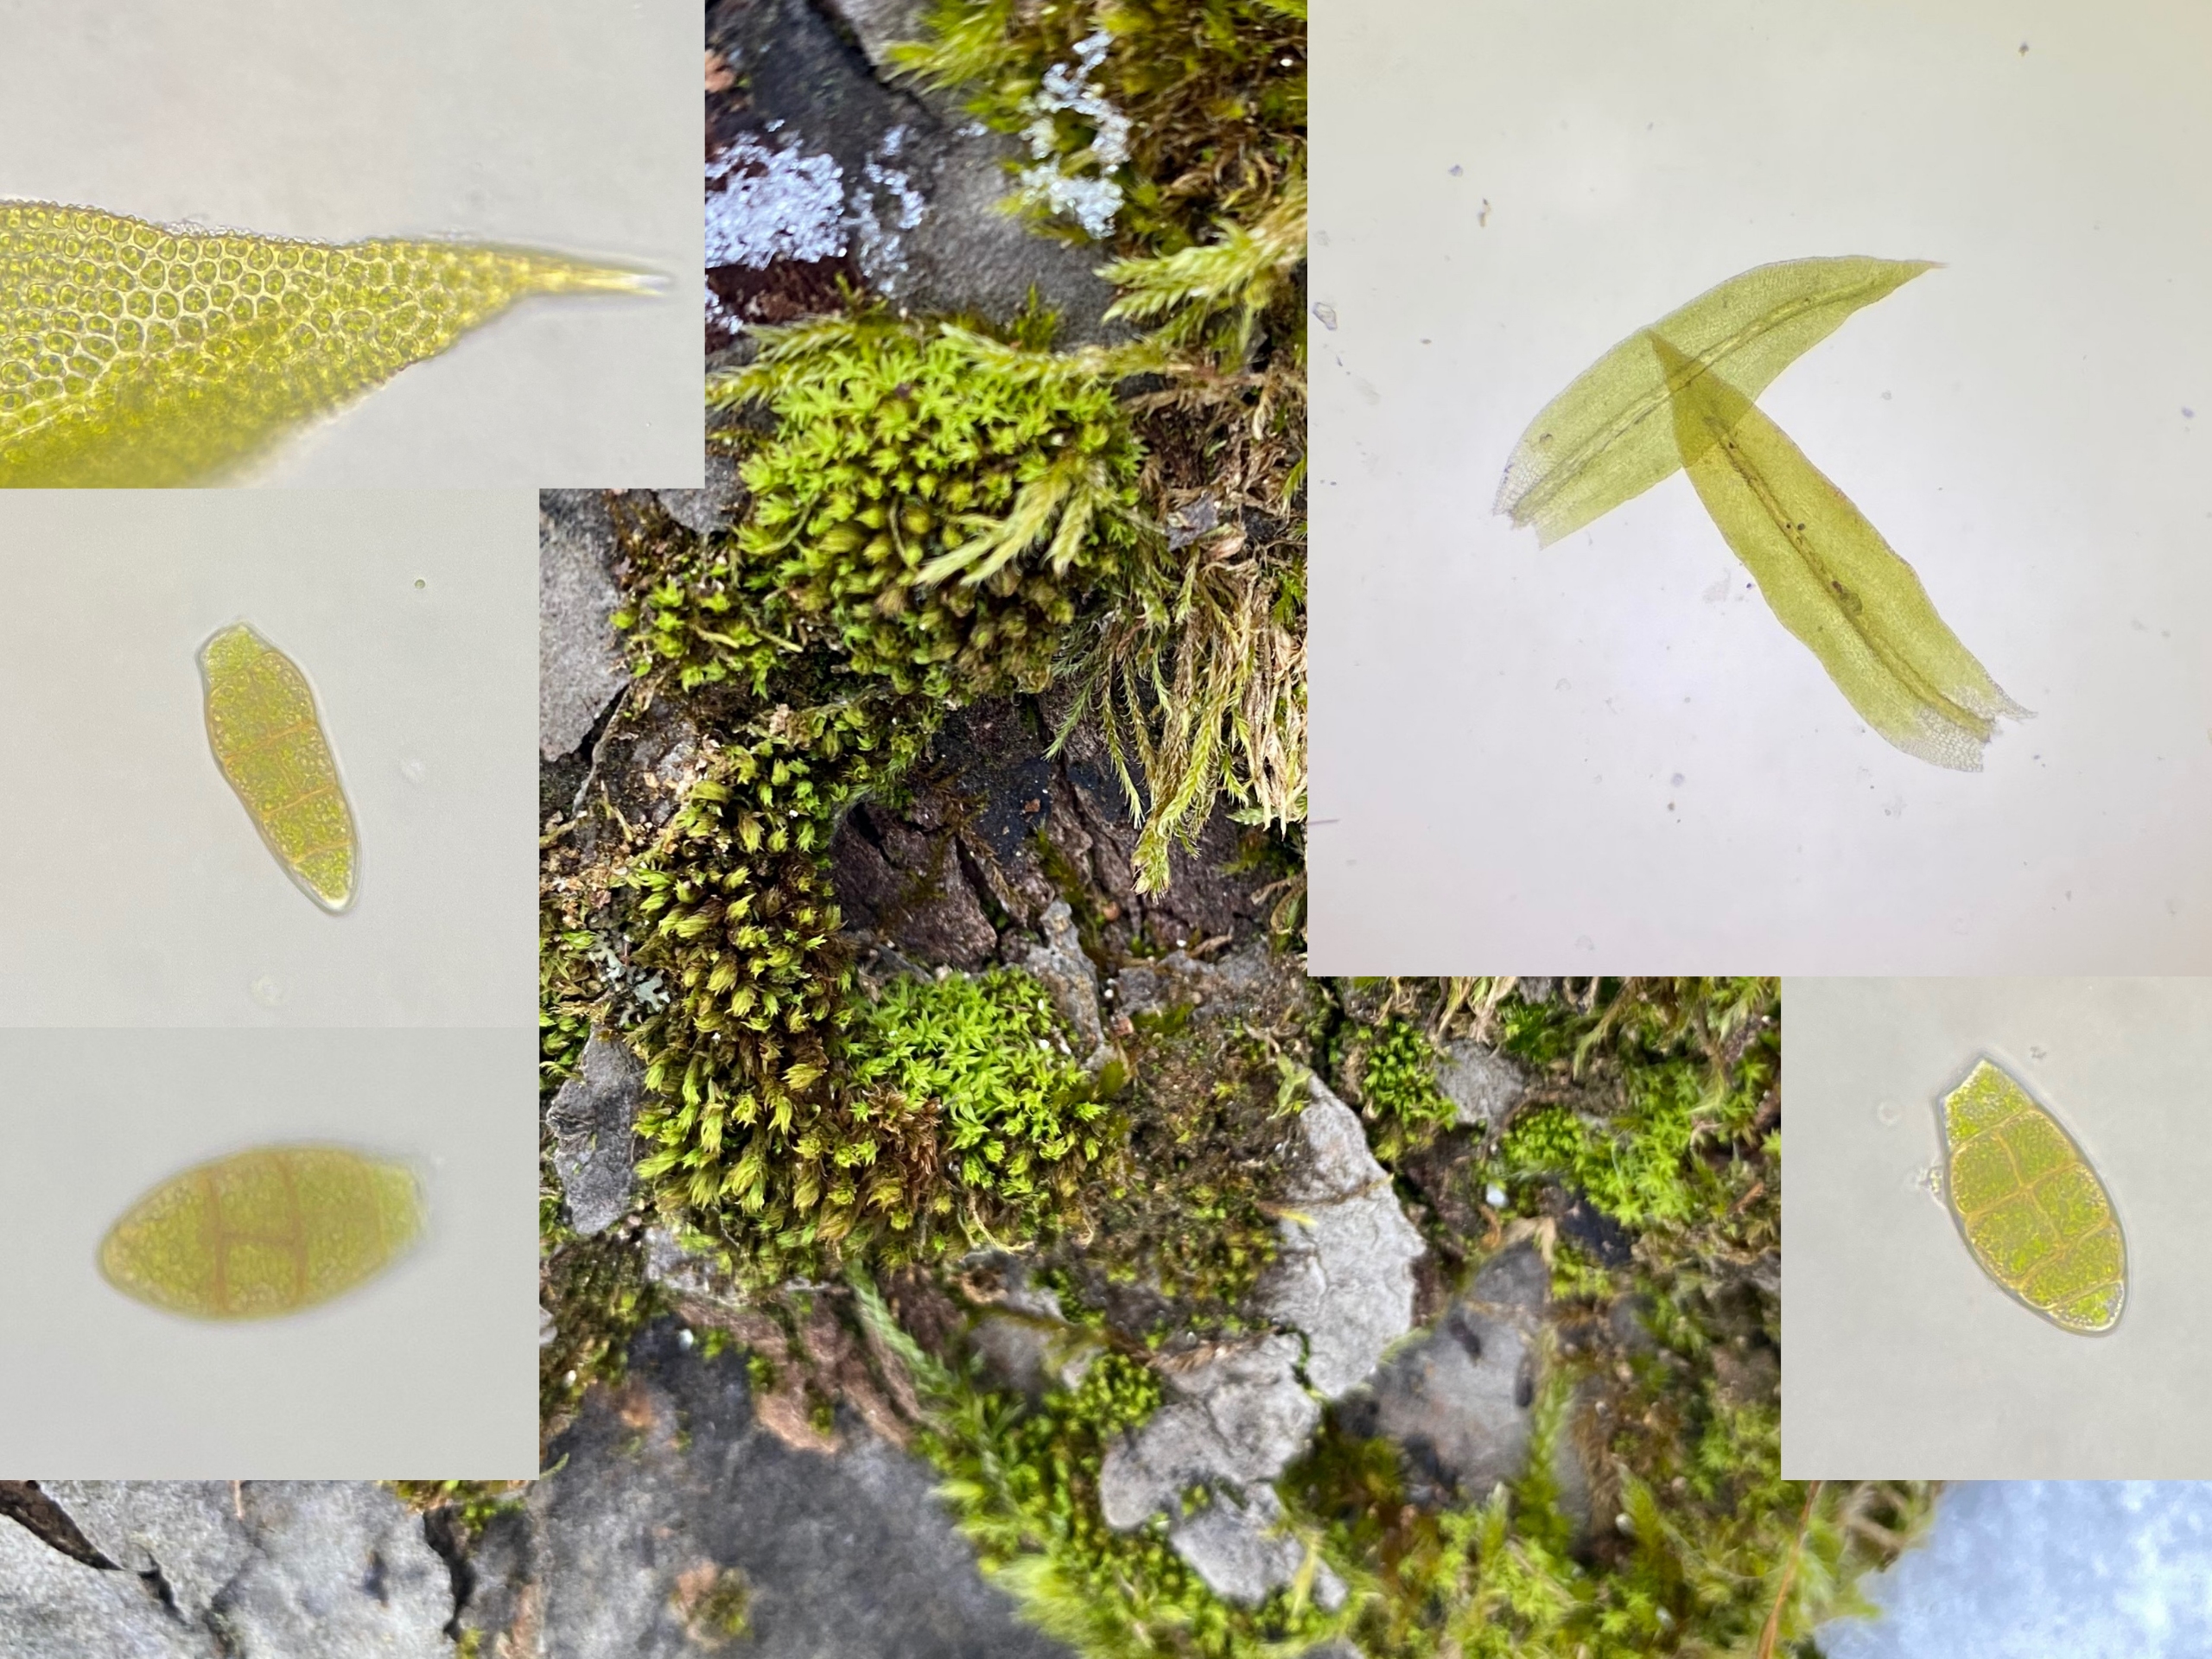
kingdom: Plantae
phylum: Bryophyta
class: Bryopsida
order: Orthotrichales
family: Orthotrichaceae
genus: Zygodon
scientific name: Zygodon viridissimus
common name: Grøn køllemos
